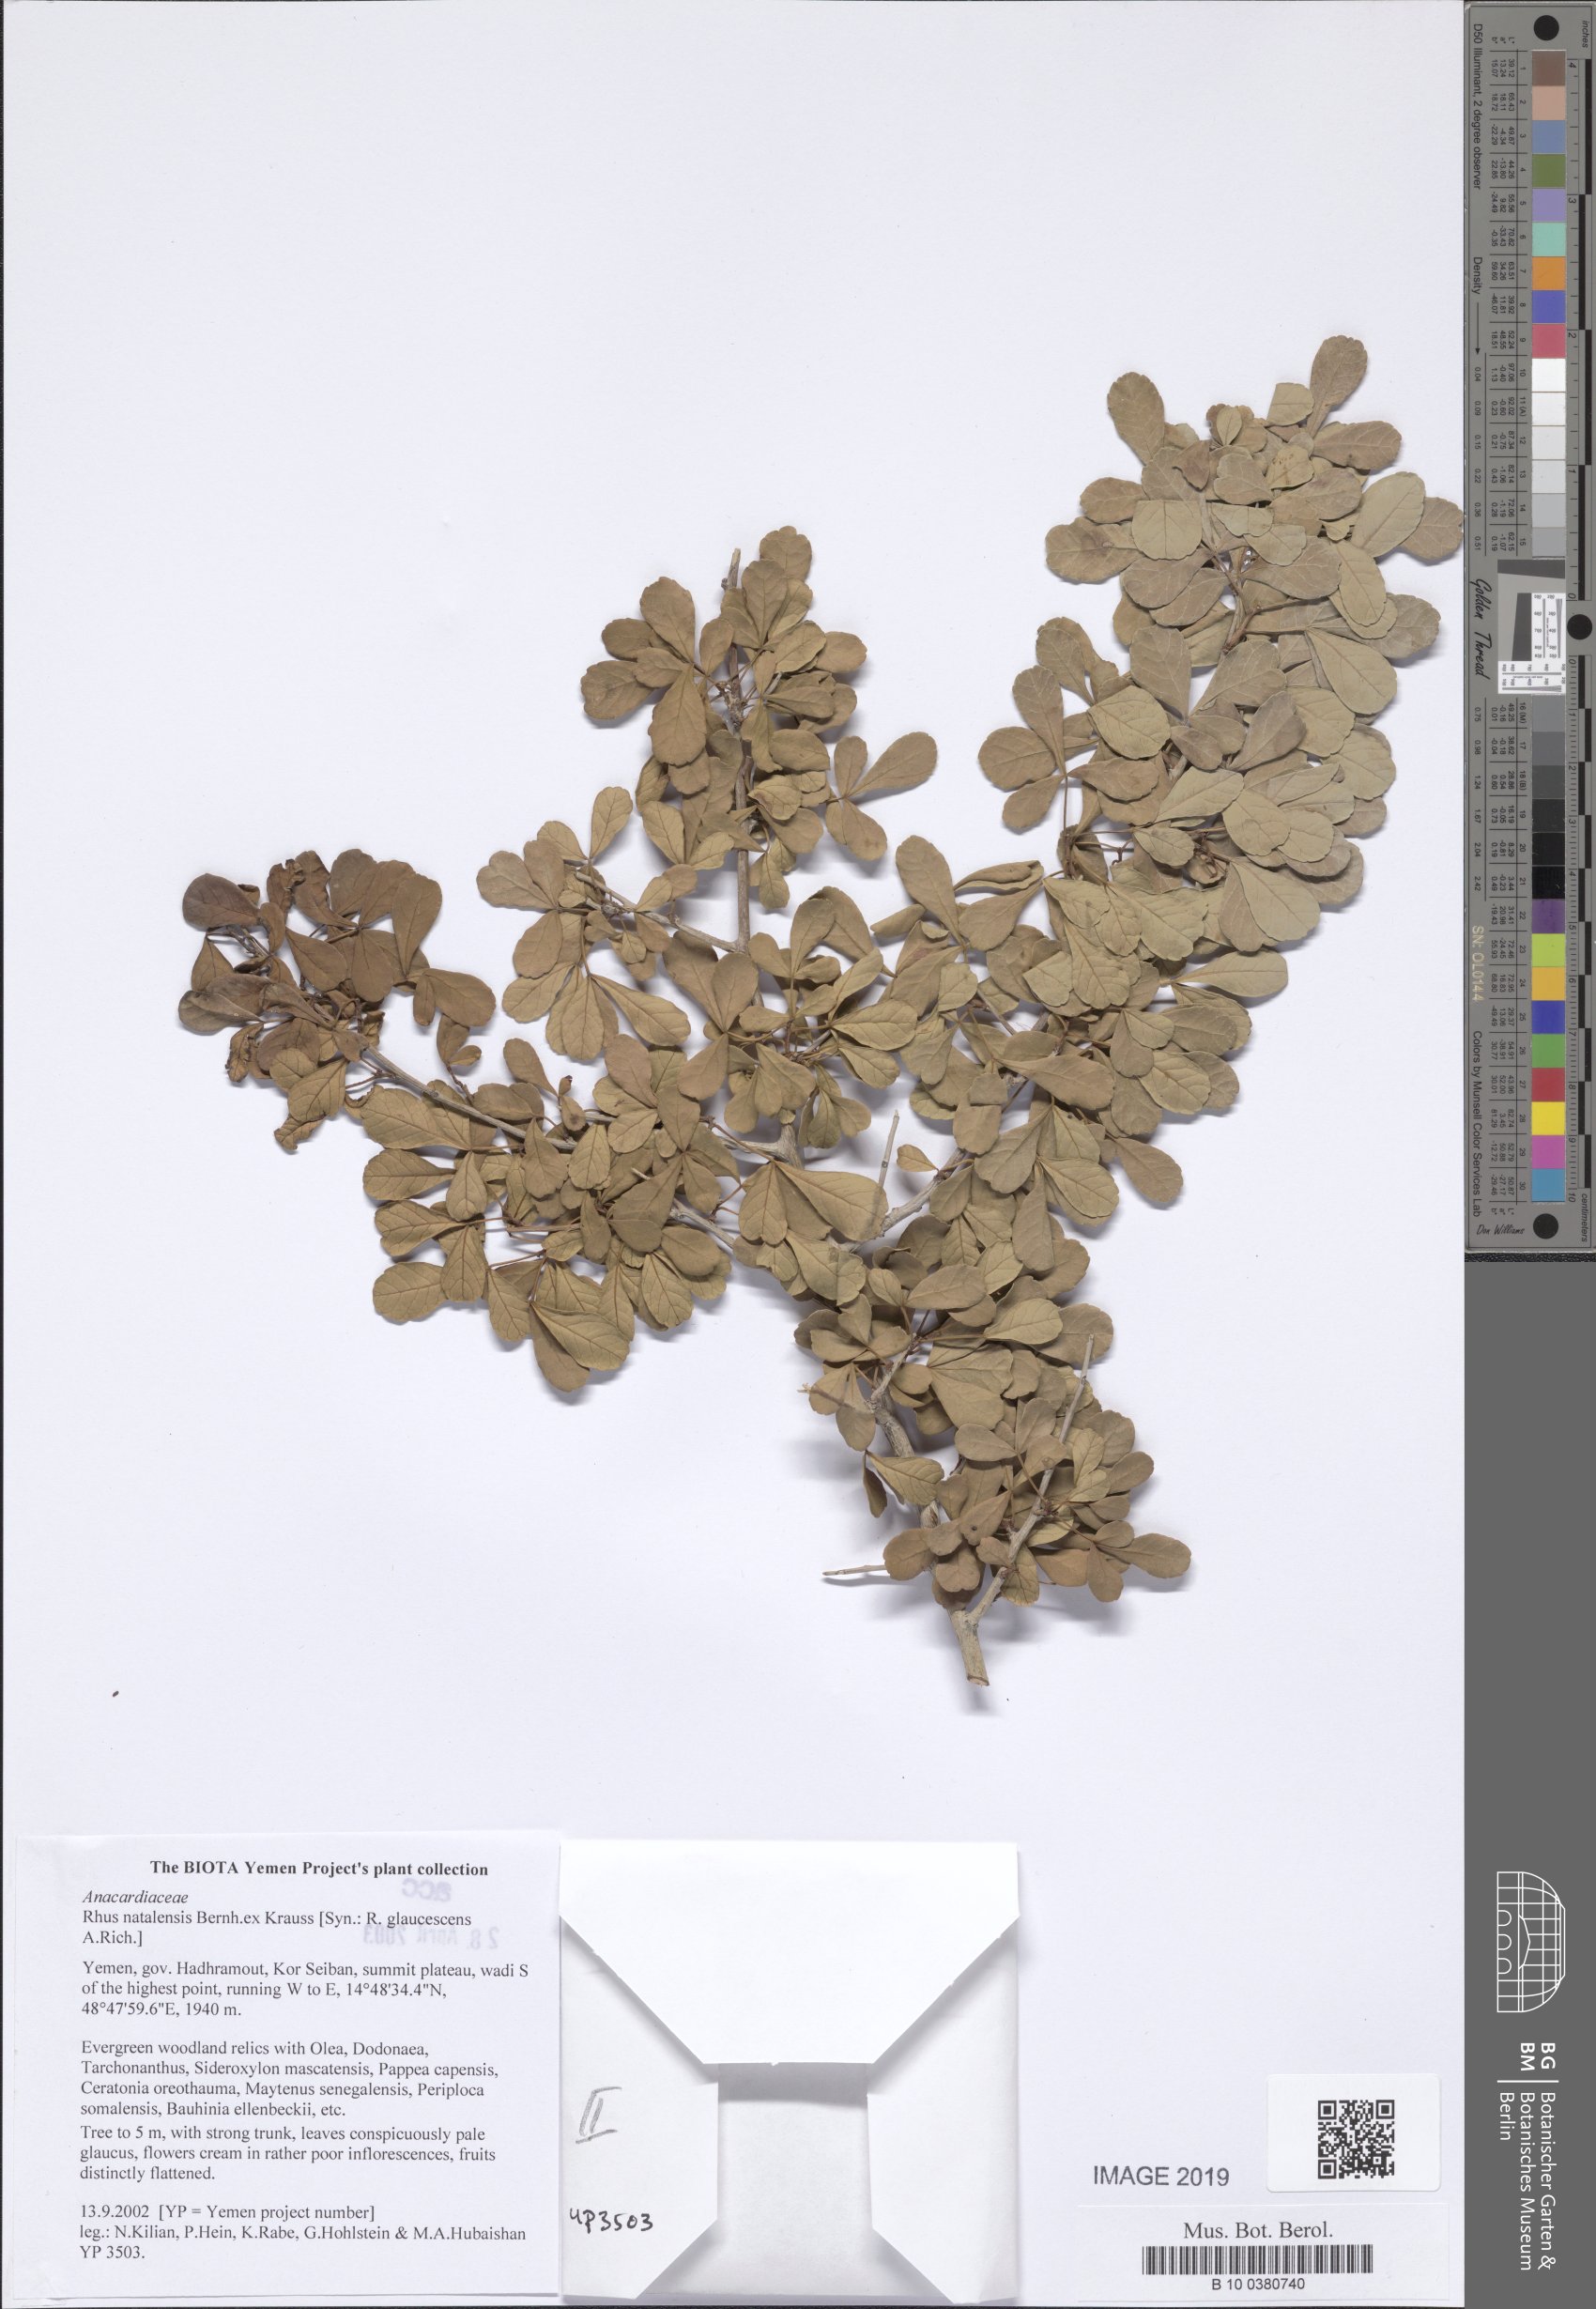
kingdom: Plantae
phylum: Tracheophyta
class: Magnoliopsida
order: Sapindales
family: Anacardiaceae
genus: Searsia
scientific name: Searsia natalensis
